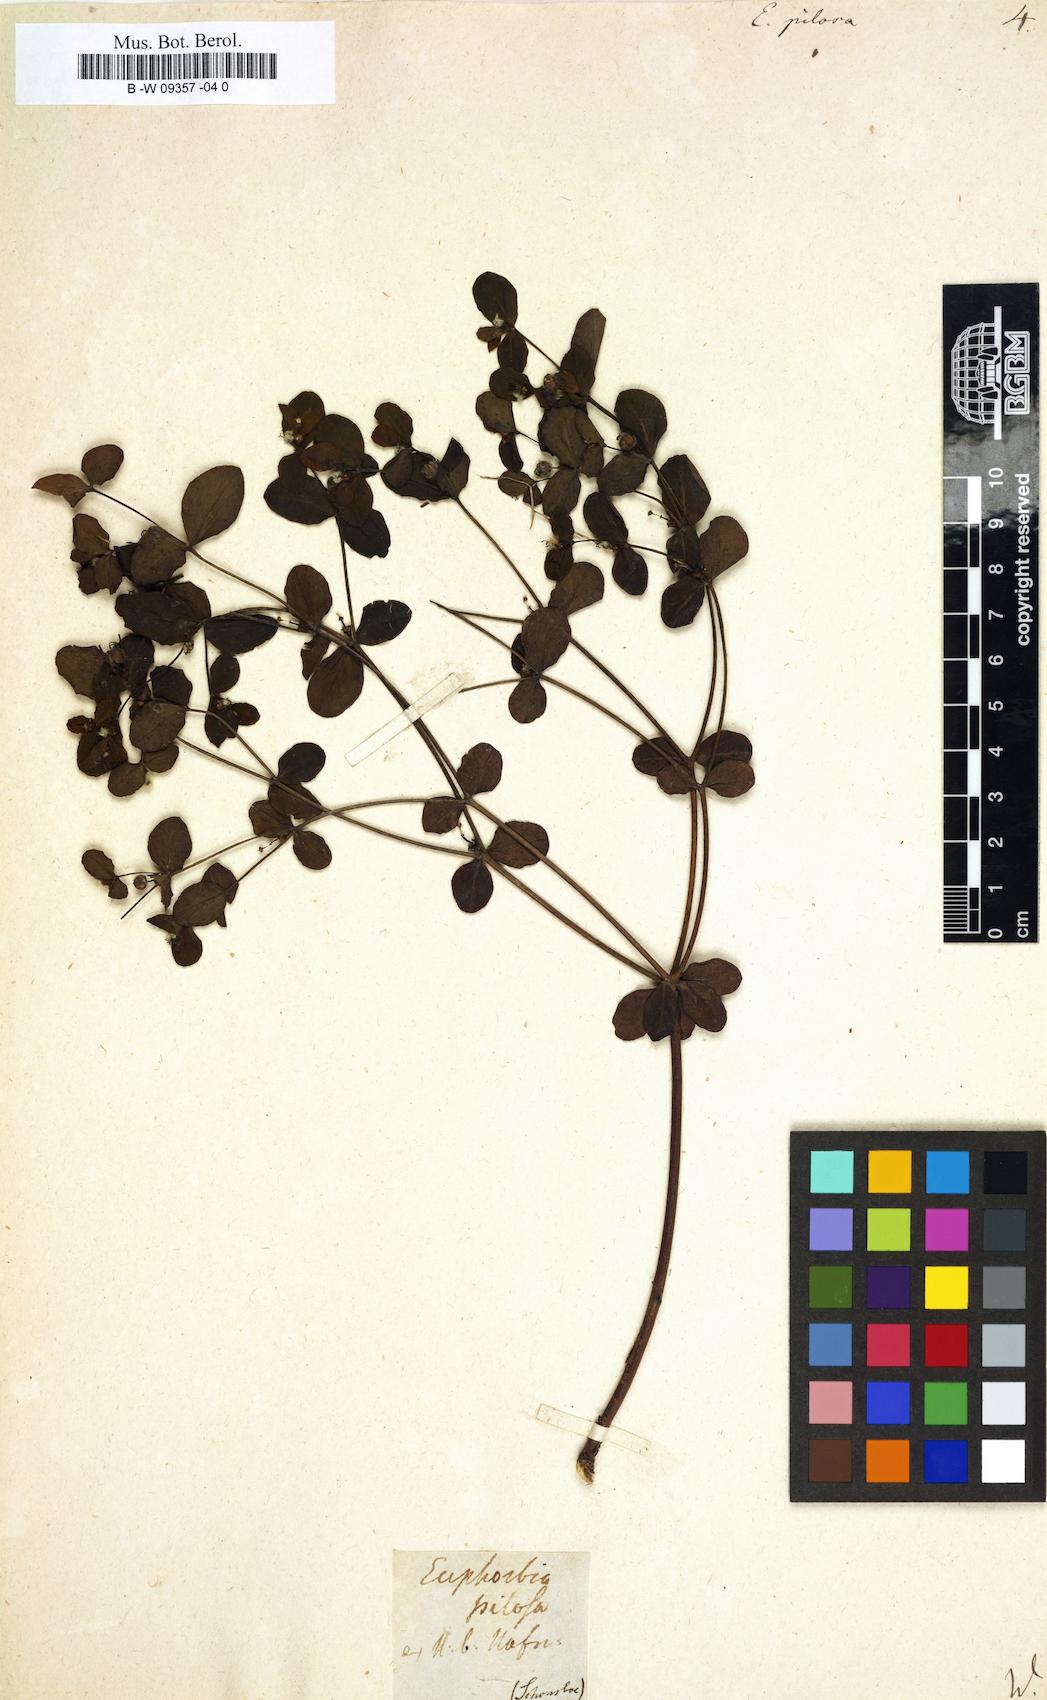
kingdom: Plantae
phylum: Tracheophyta
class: Magnoliopsida
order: Malpighiales
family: Euphorbiaceae
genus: Euphorbia
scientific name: Euphorbia pilosa
